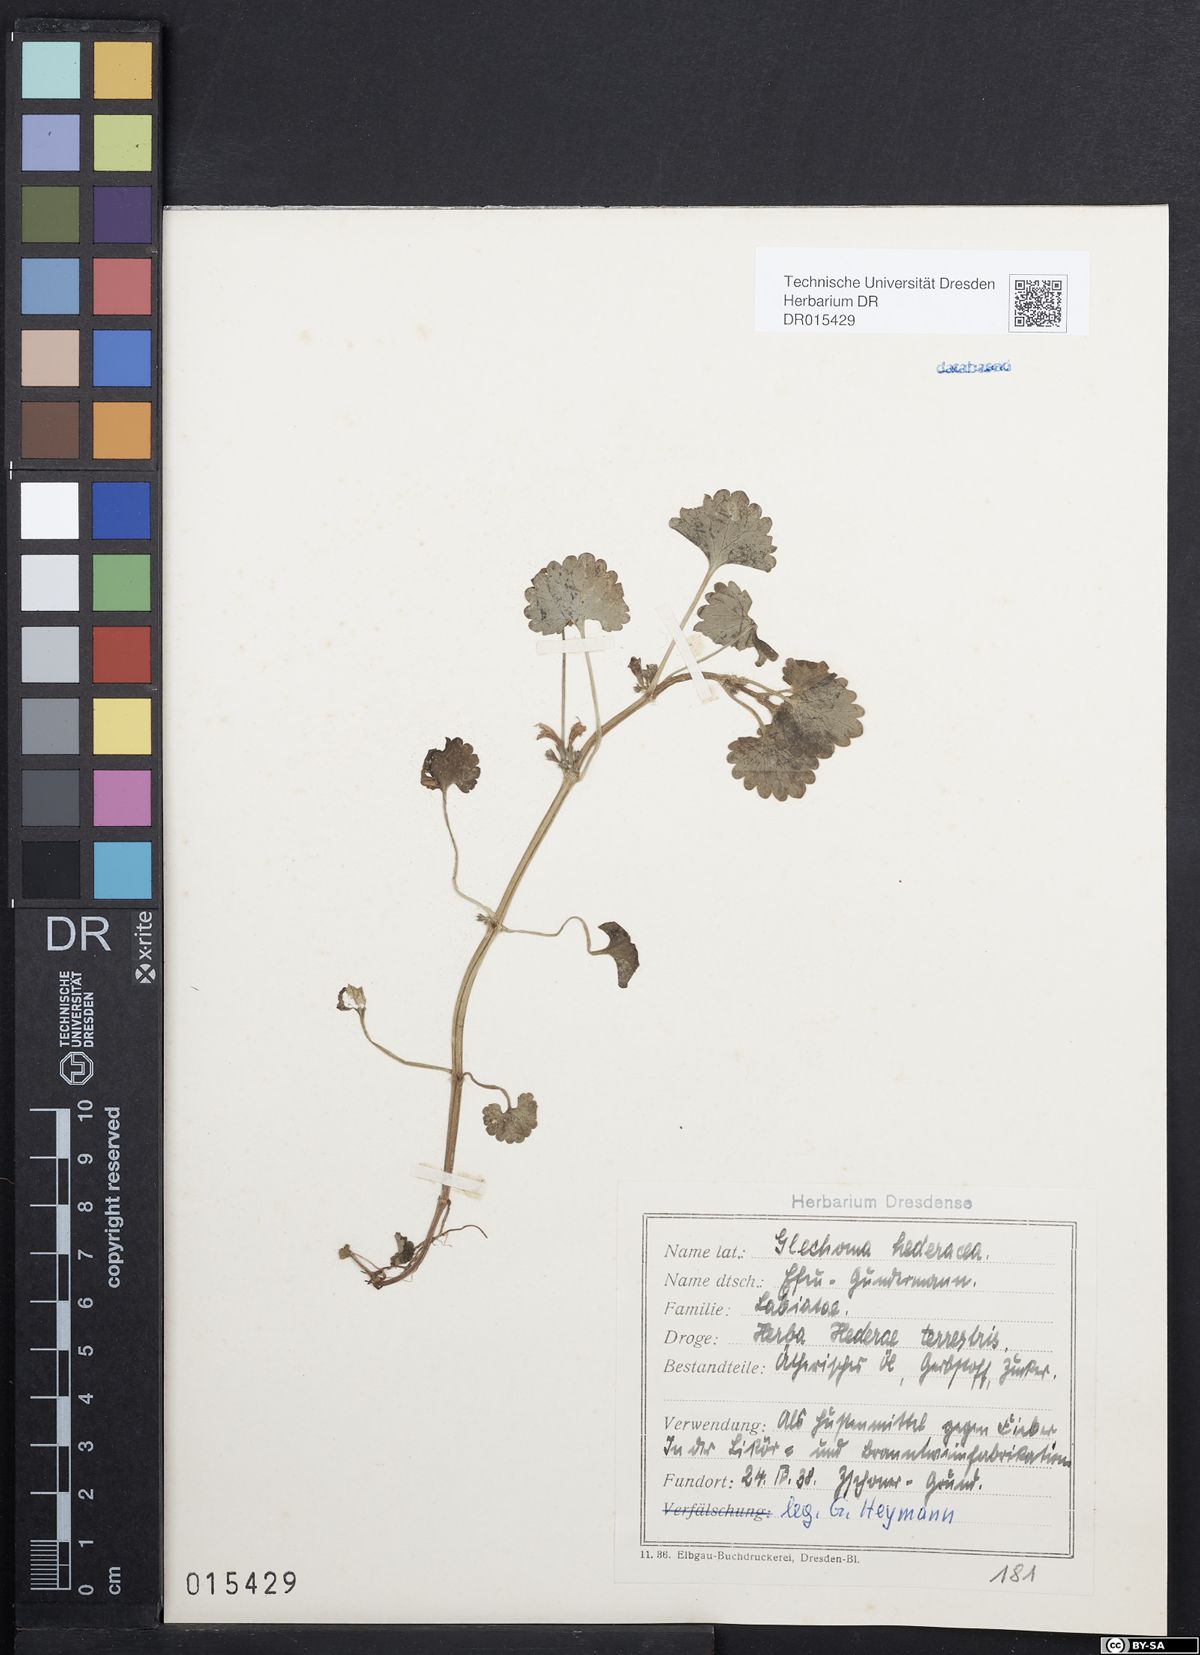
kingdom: Plantae
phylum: Tracheophyta
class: Magnoliopsida
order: Lamiales
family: Lamiaceae
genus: Glechoma
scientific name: Glechoma hederacea
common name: Ground ivy
